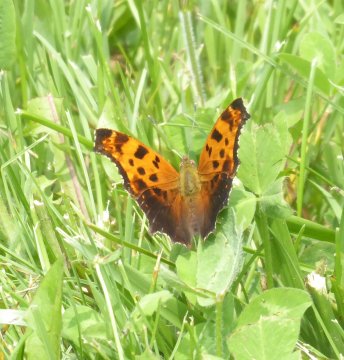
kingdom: Animalia
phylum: Arthropoda
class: Insecta
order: Lepidoptera
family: Nymphalidae
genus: Polygonia
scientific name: Polygonia comma
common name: Eastern Comma
